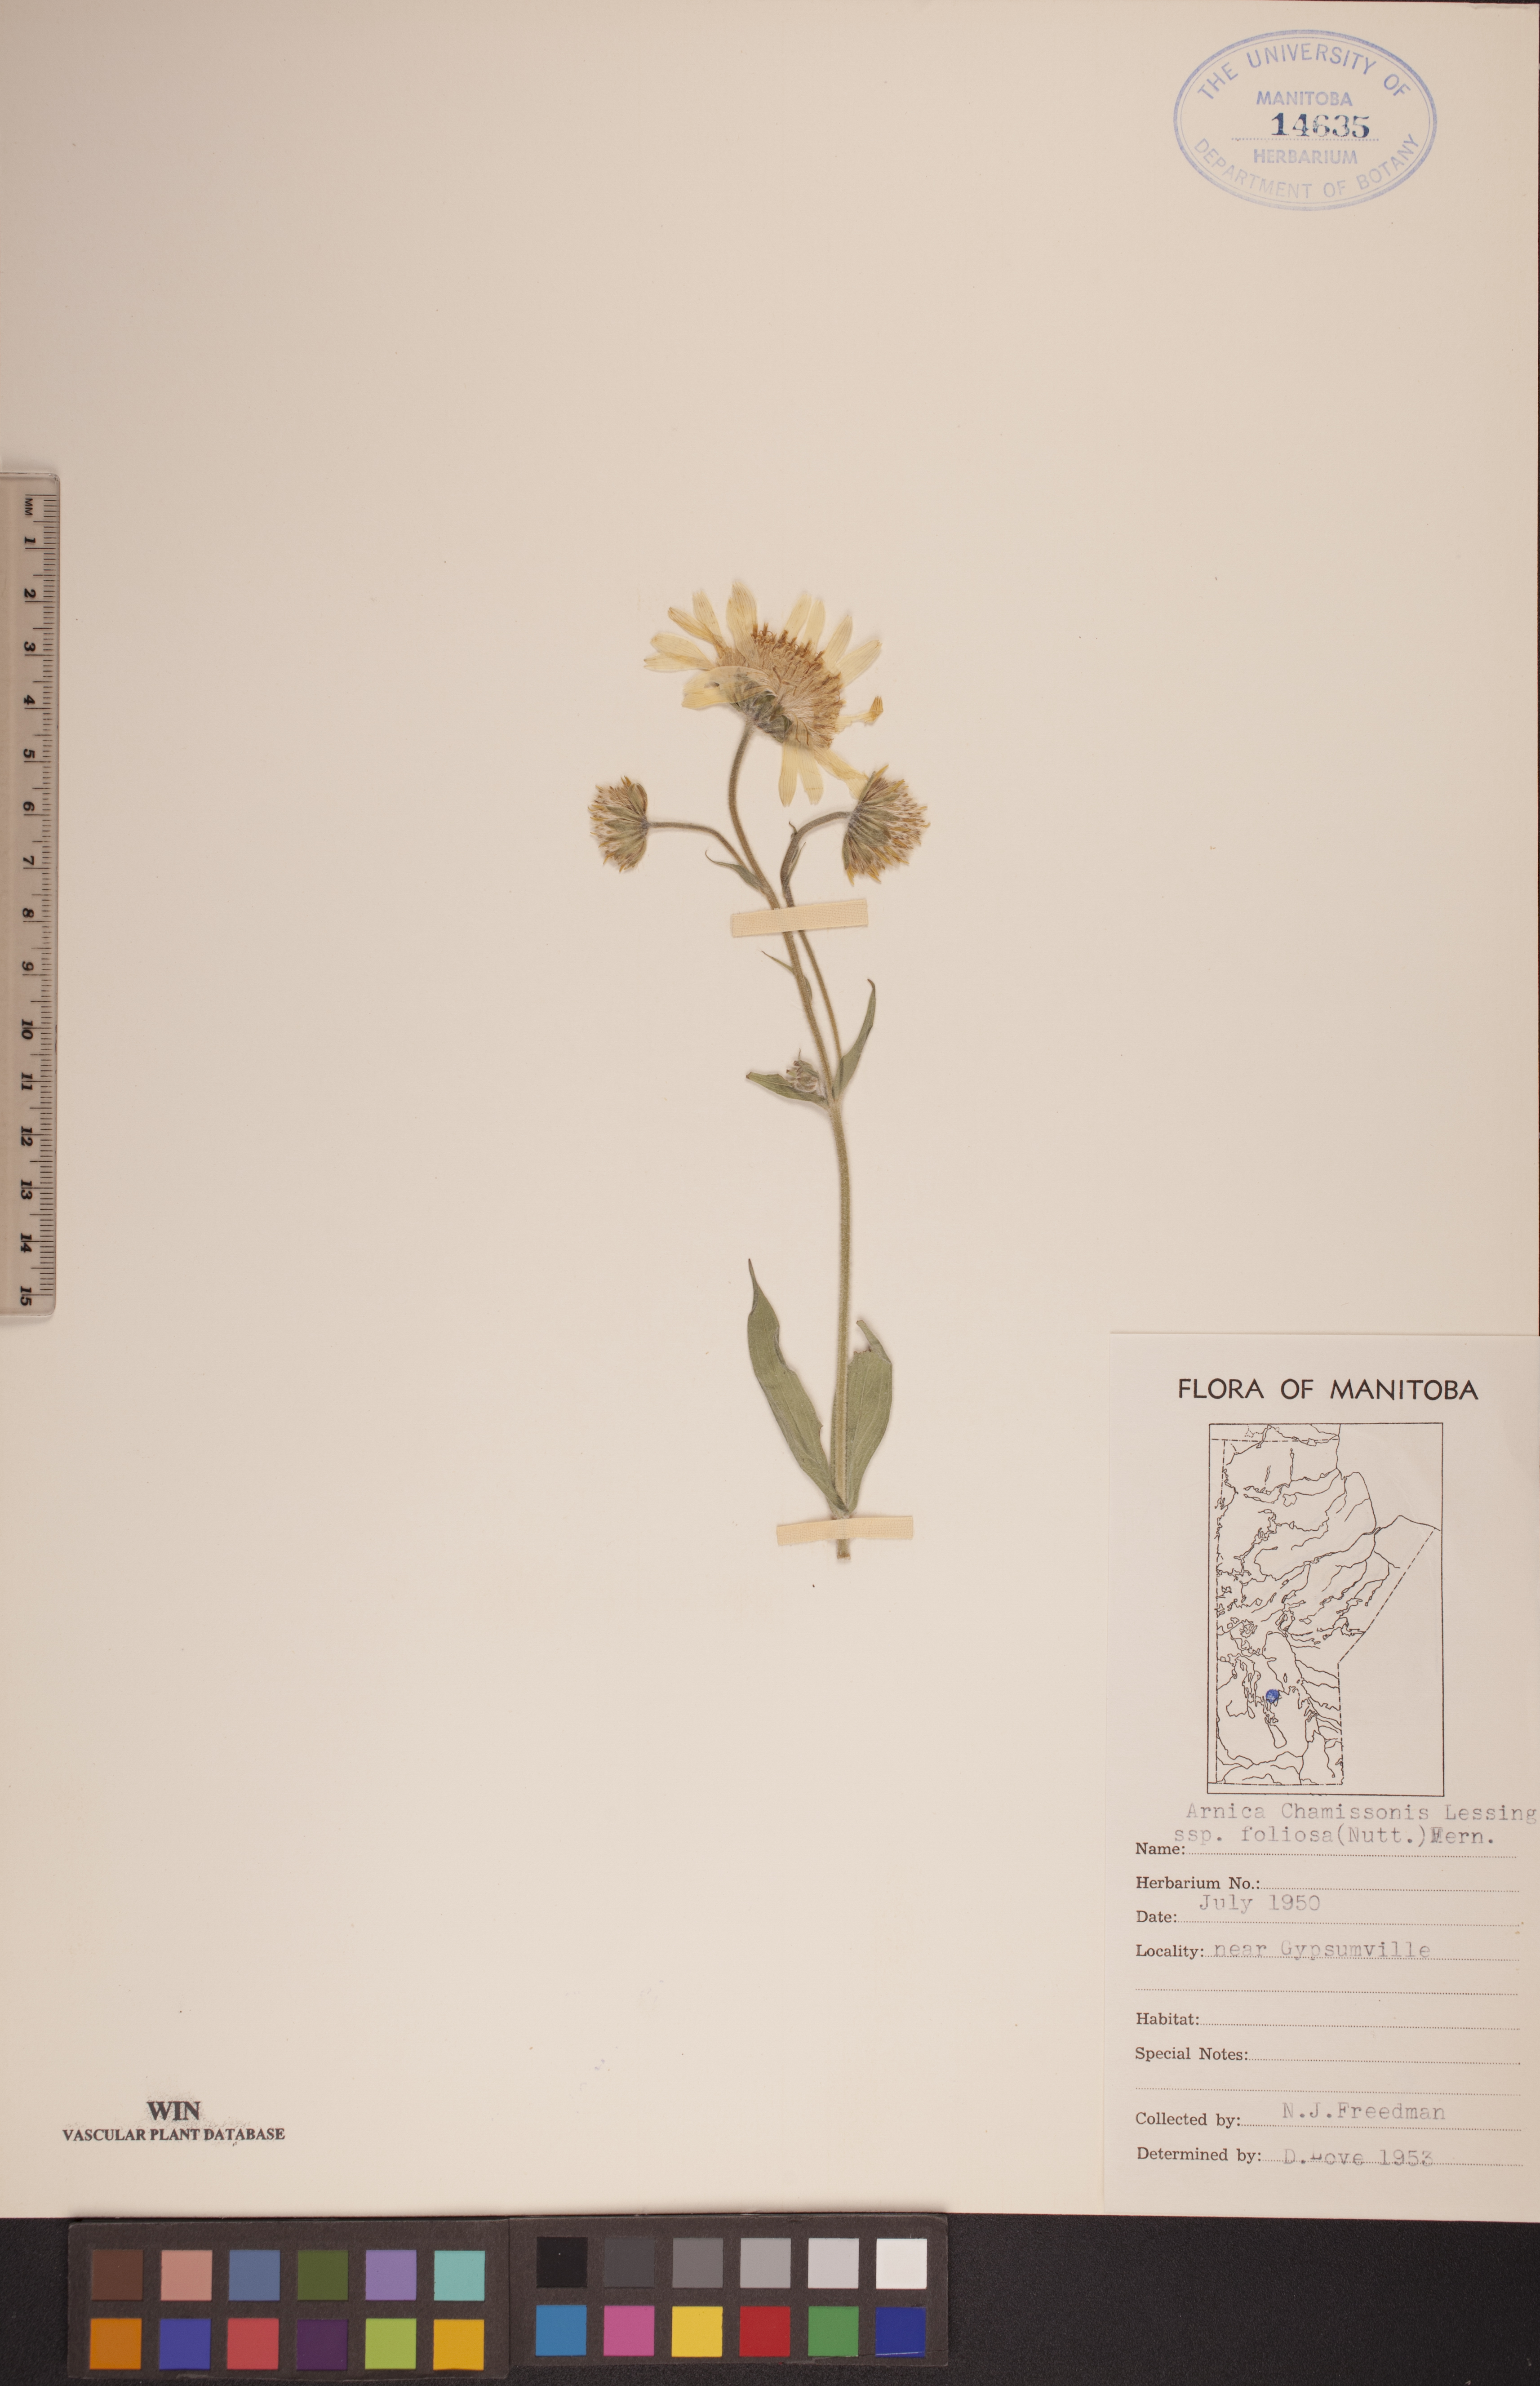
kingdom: Plantae
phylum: Tracheophyta
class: Magnoliopsida
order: Asterales
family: Asteraceae
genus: Arnica
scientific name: Arnica chamissonis
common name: Leafy arnica
